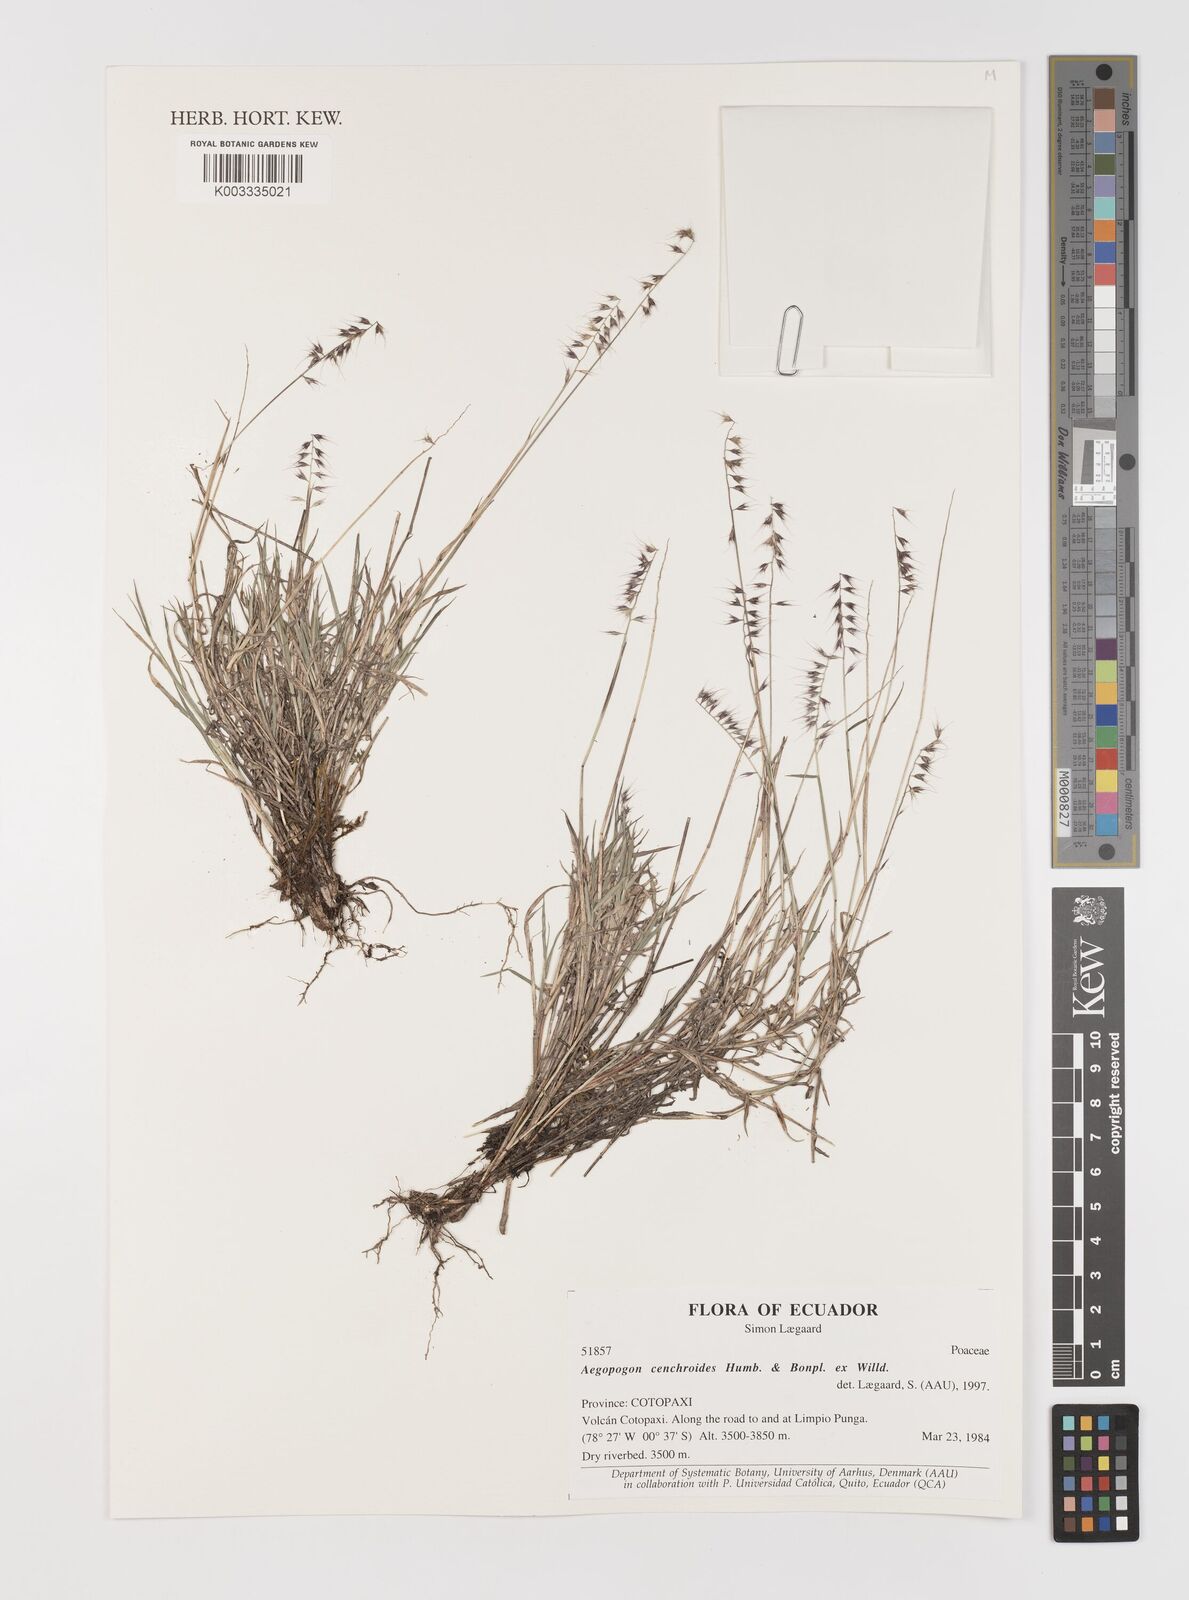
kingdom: Plantae
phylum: Tracheophyta
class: Liliopsida
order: Poales
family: Poaceae
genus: Muhlenbergia
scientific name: Muhlenbergia cenchroides
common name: Relaxgrass
